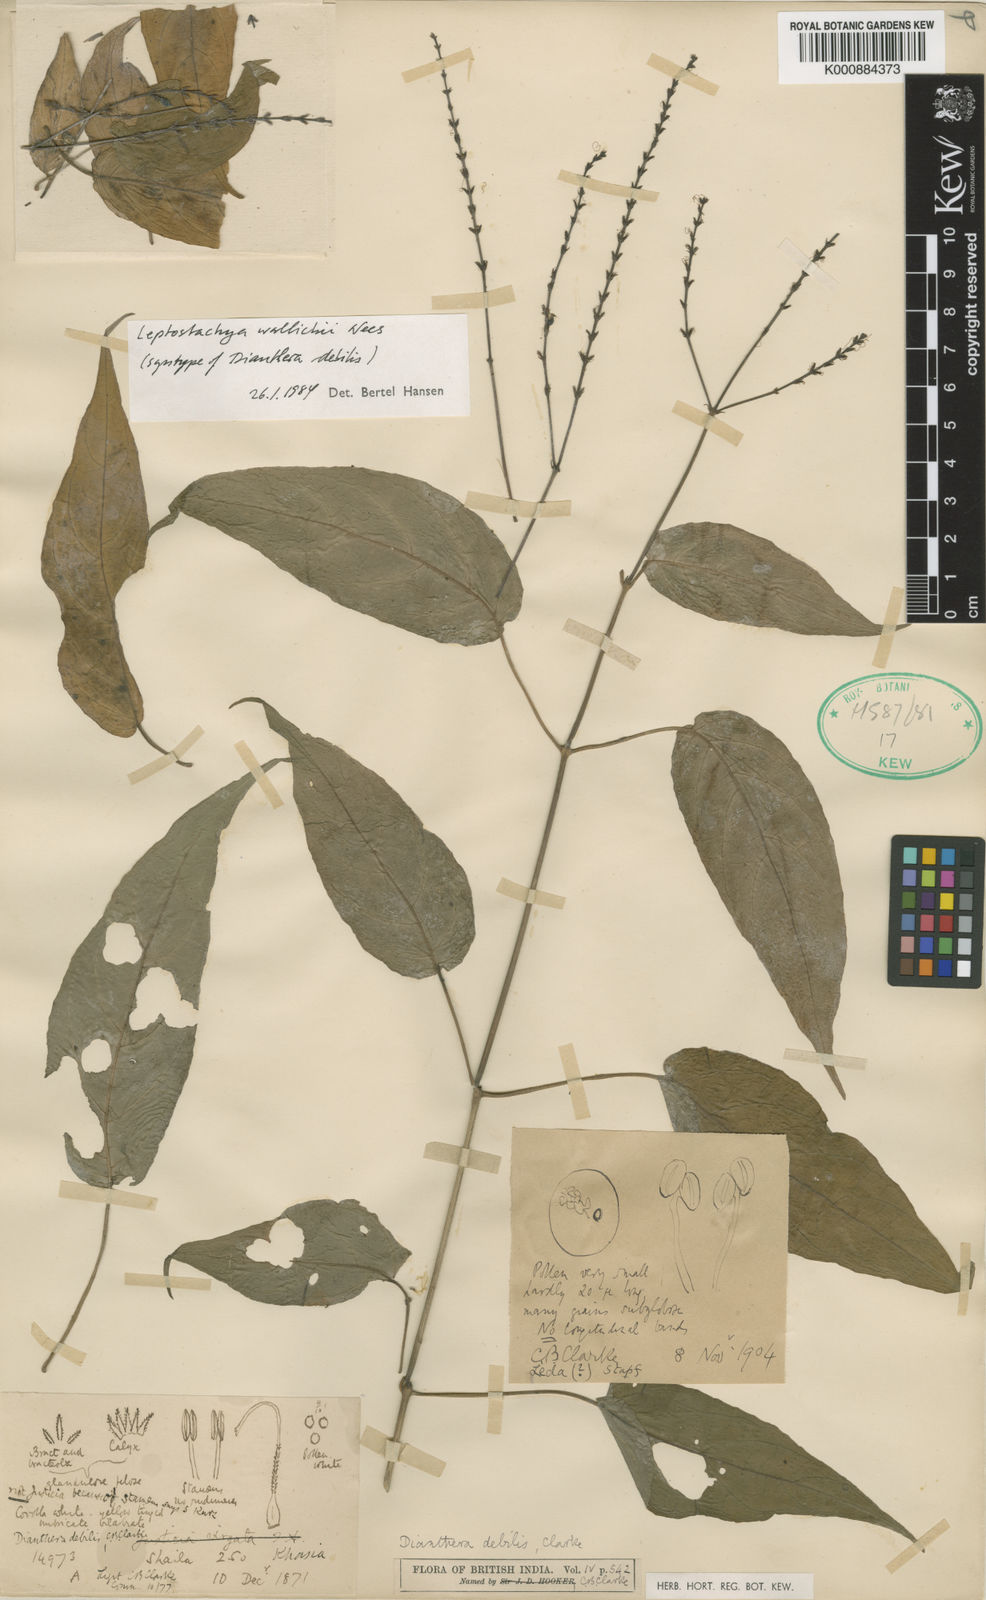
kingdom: Plantae
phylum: Tracheophyta
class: Magnoliopsida
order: Lamiales
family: Acanthaceae
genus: Leptostachya
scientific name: Leptostachya wallichii
